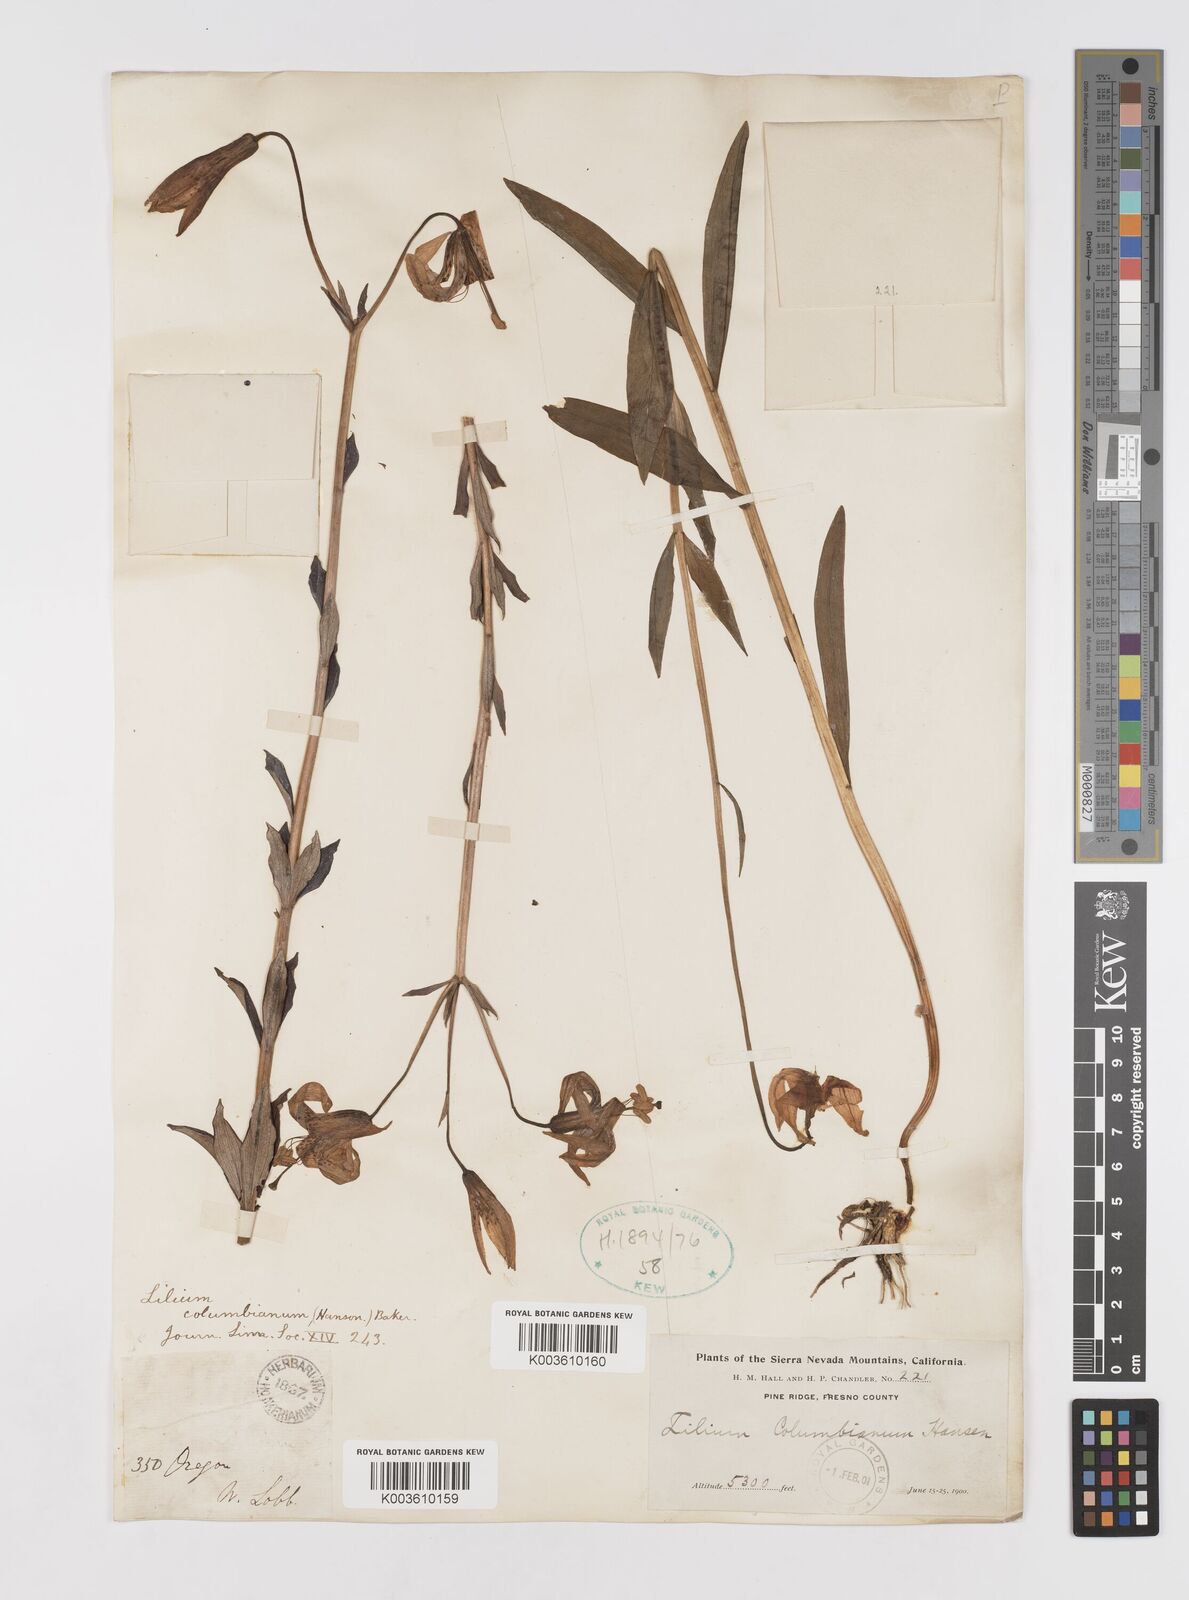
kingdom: Plantae
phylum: Tracheophyta
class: Liliopsida
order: Liliales
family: Liliaceae
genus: Lilium
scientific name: Lilium
